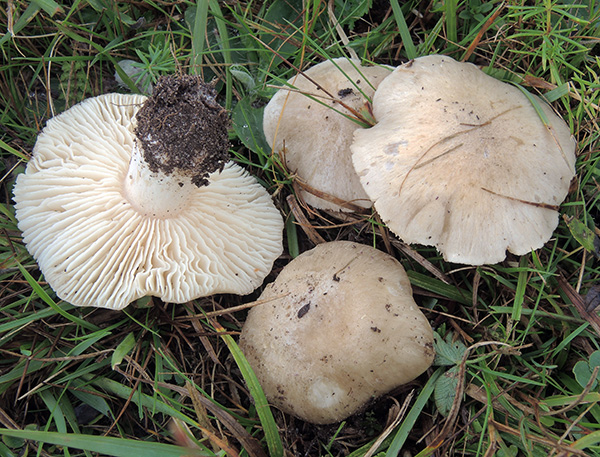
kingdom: Fungi
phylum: Basidiomycota
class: Agaricomycetes
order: Agaricales
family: Entolomataceae
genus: Entoloma
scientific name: Entoloma prunuloides
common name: mel-rødblad
